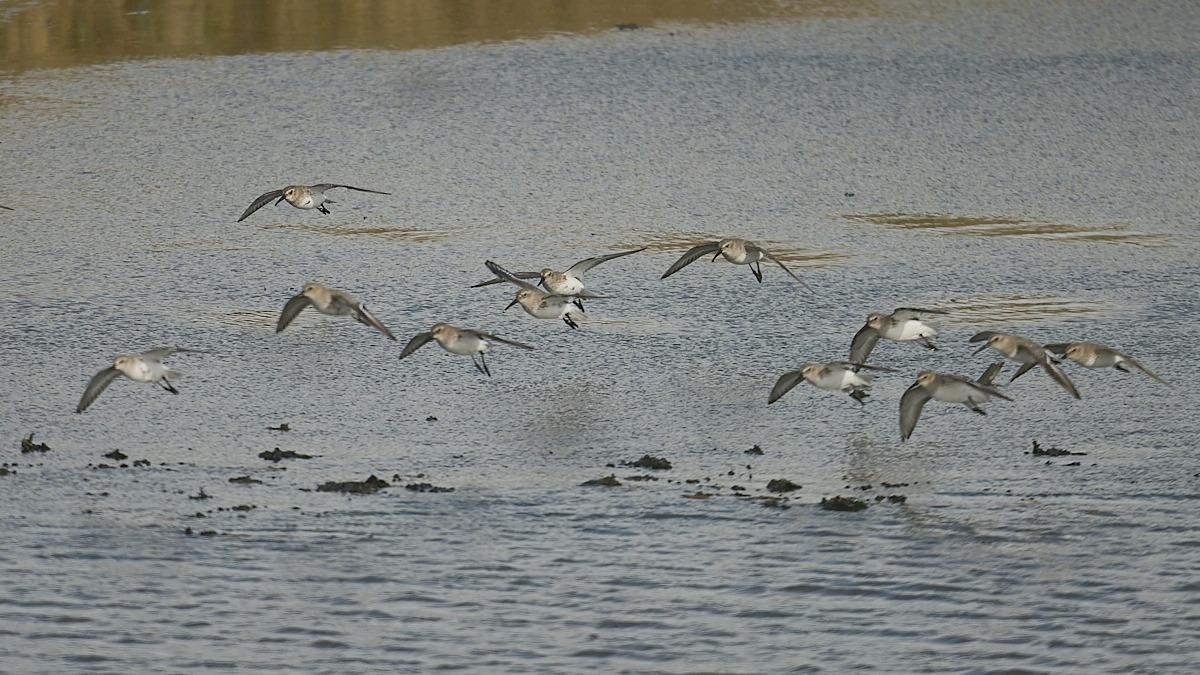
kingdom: Animalia
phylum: Chordata
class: Aves
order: Charadriiformes
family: Scolopacidae
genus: Calidris
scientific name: Calidris alpina
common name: Almindelig ryle
